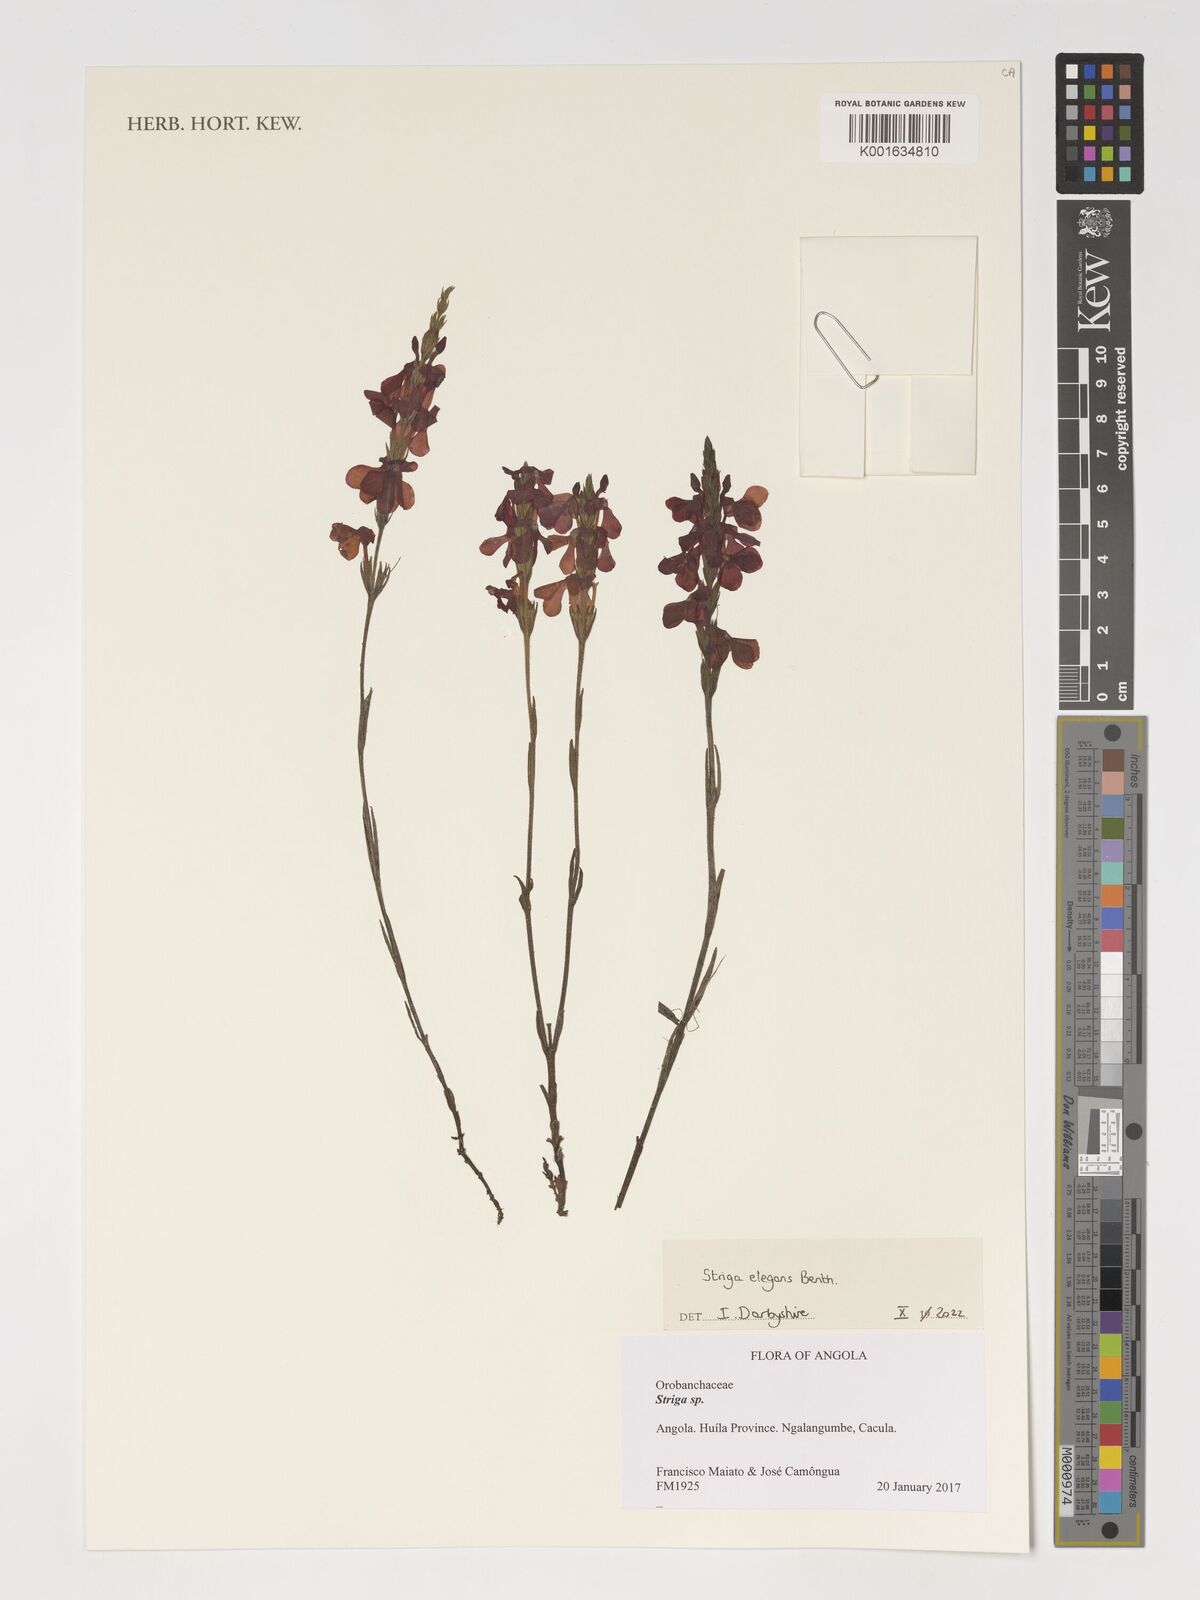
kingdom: Plantae
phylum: Tracheophyta
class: Magnoliopsida
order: Lamiales
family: Orobanchaceae
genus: Striga
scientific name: Striga elegans
